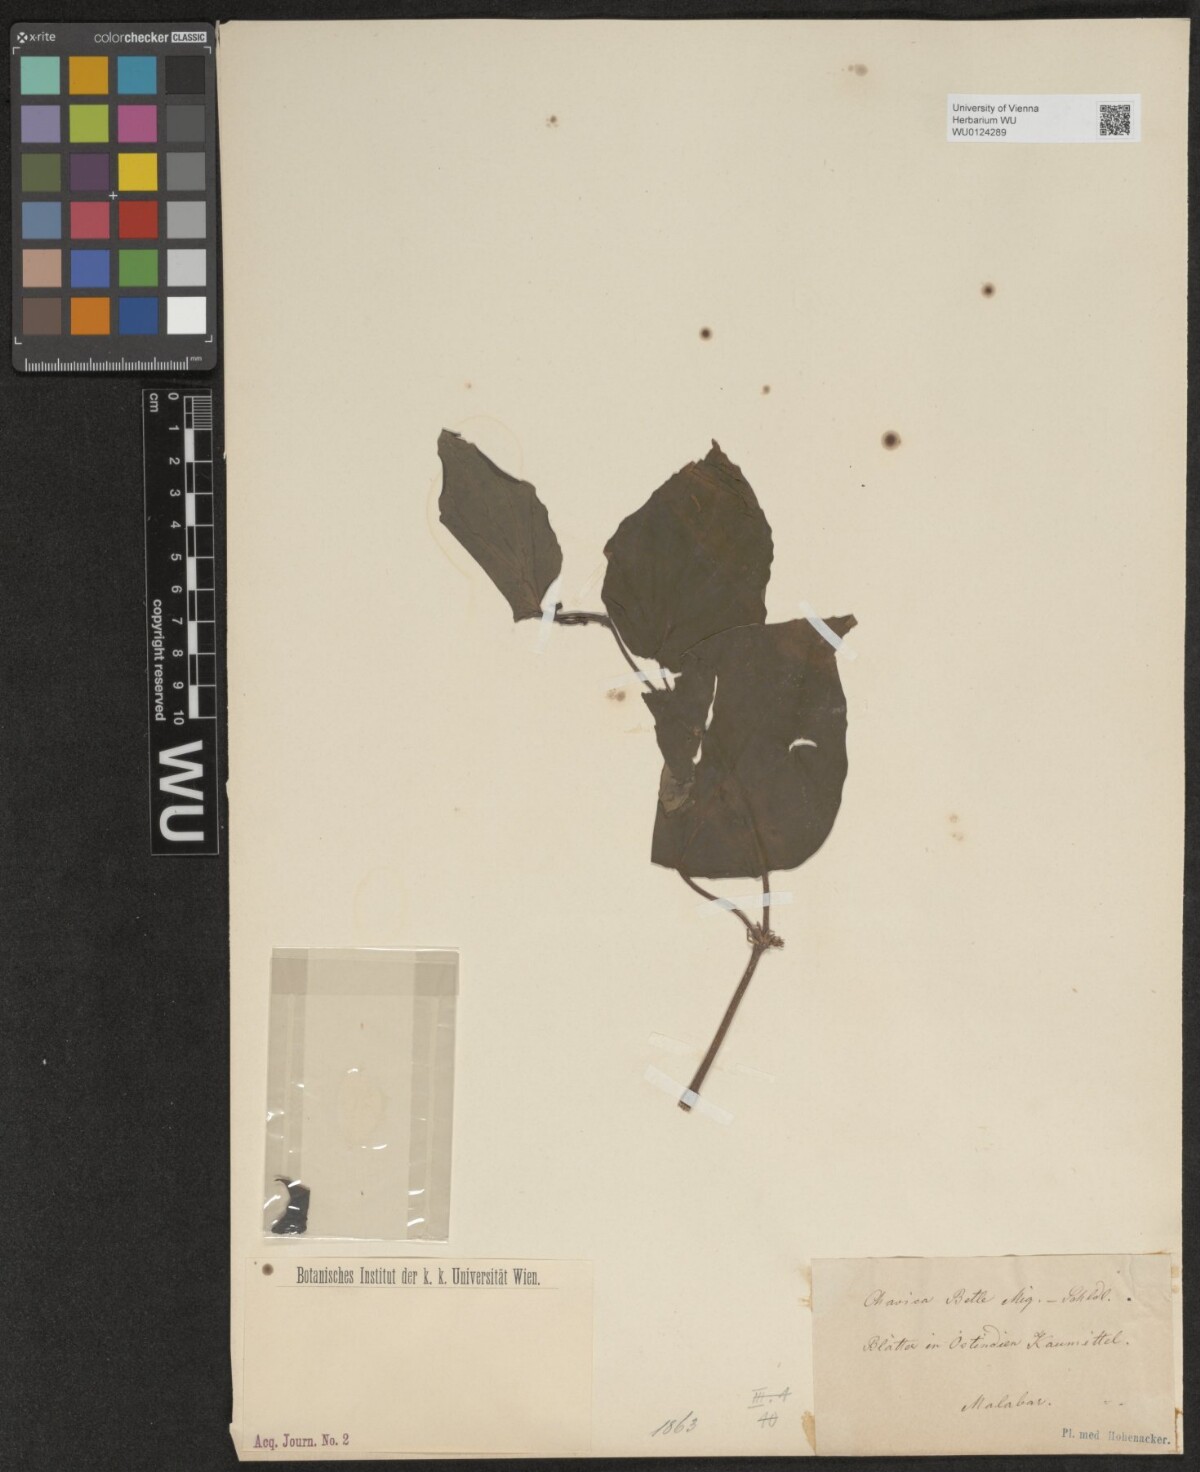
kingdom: Plantae
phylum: Tracheophyta
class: Magnoliopsida
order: Piperales
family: Piperaceae
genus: Piper
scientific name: Piper betle
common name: Betel pepper
